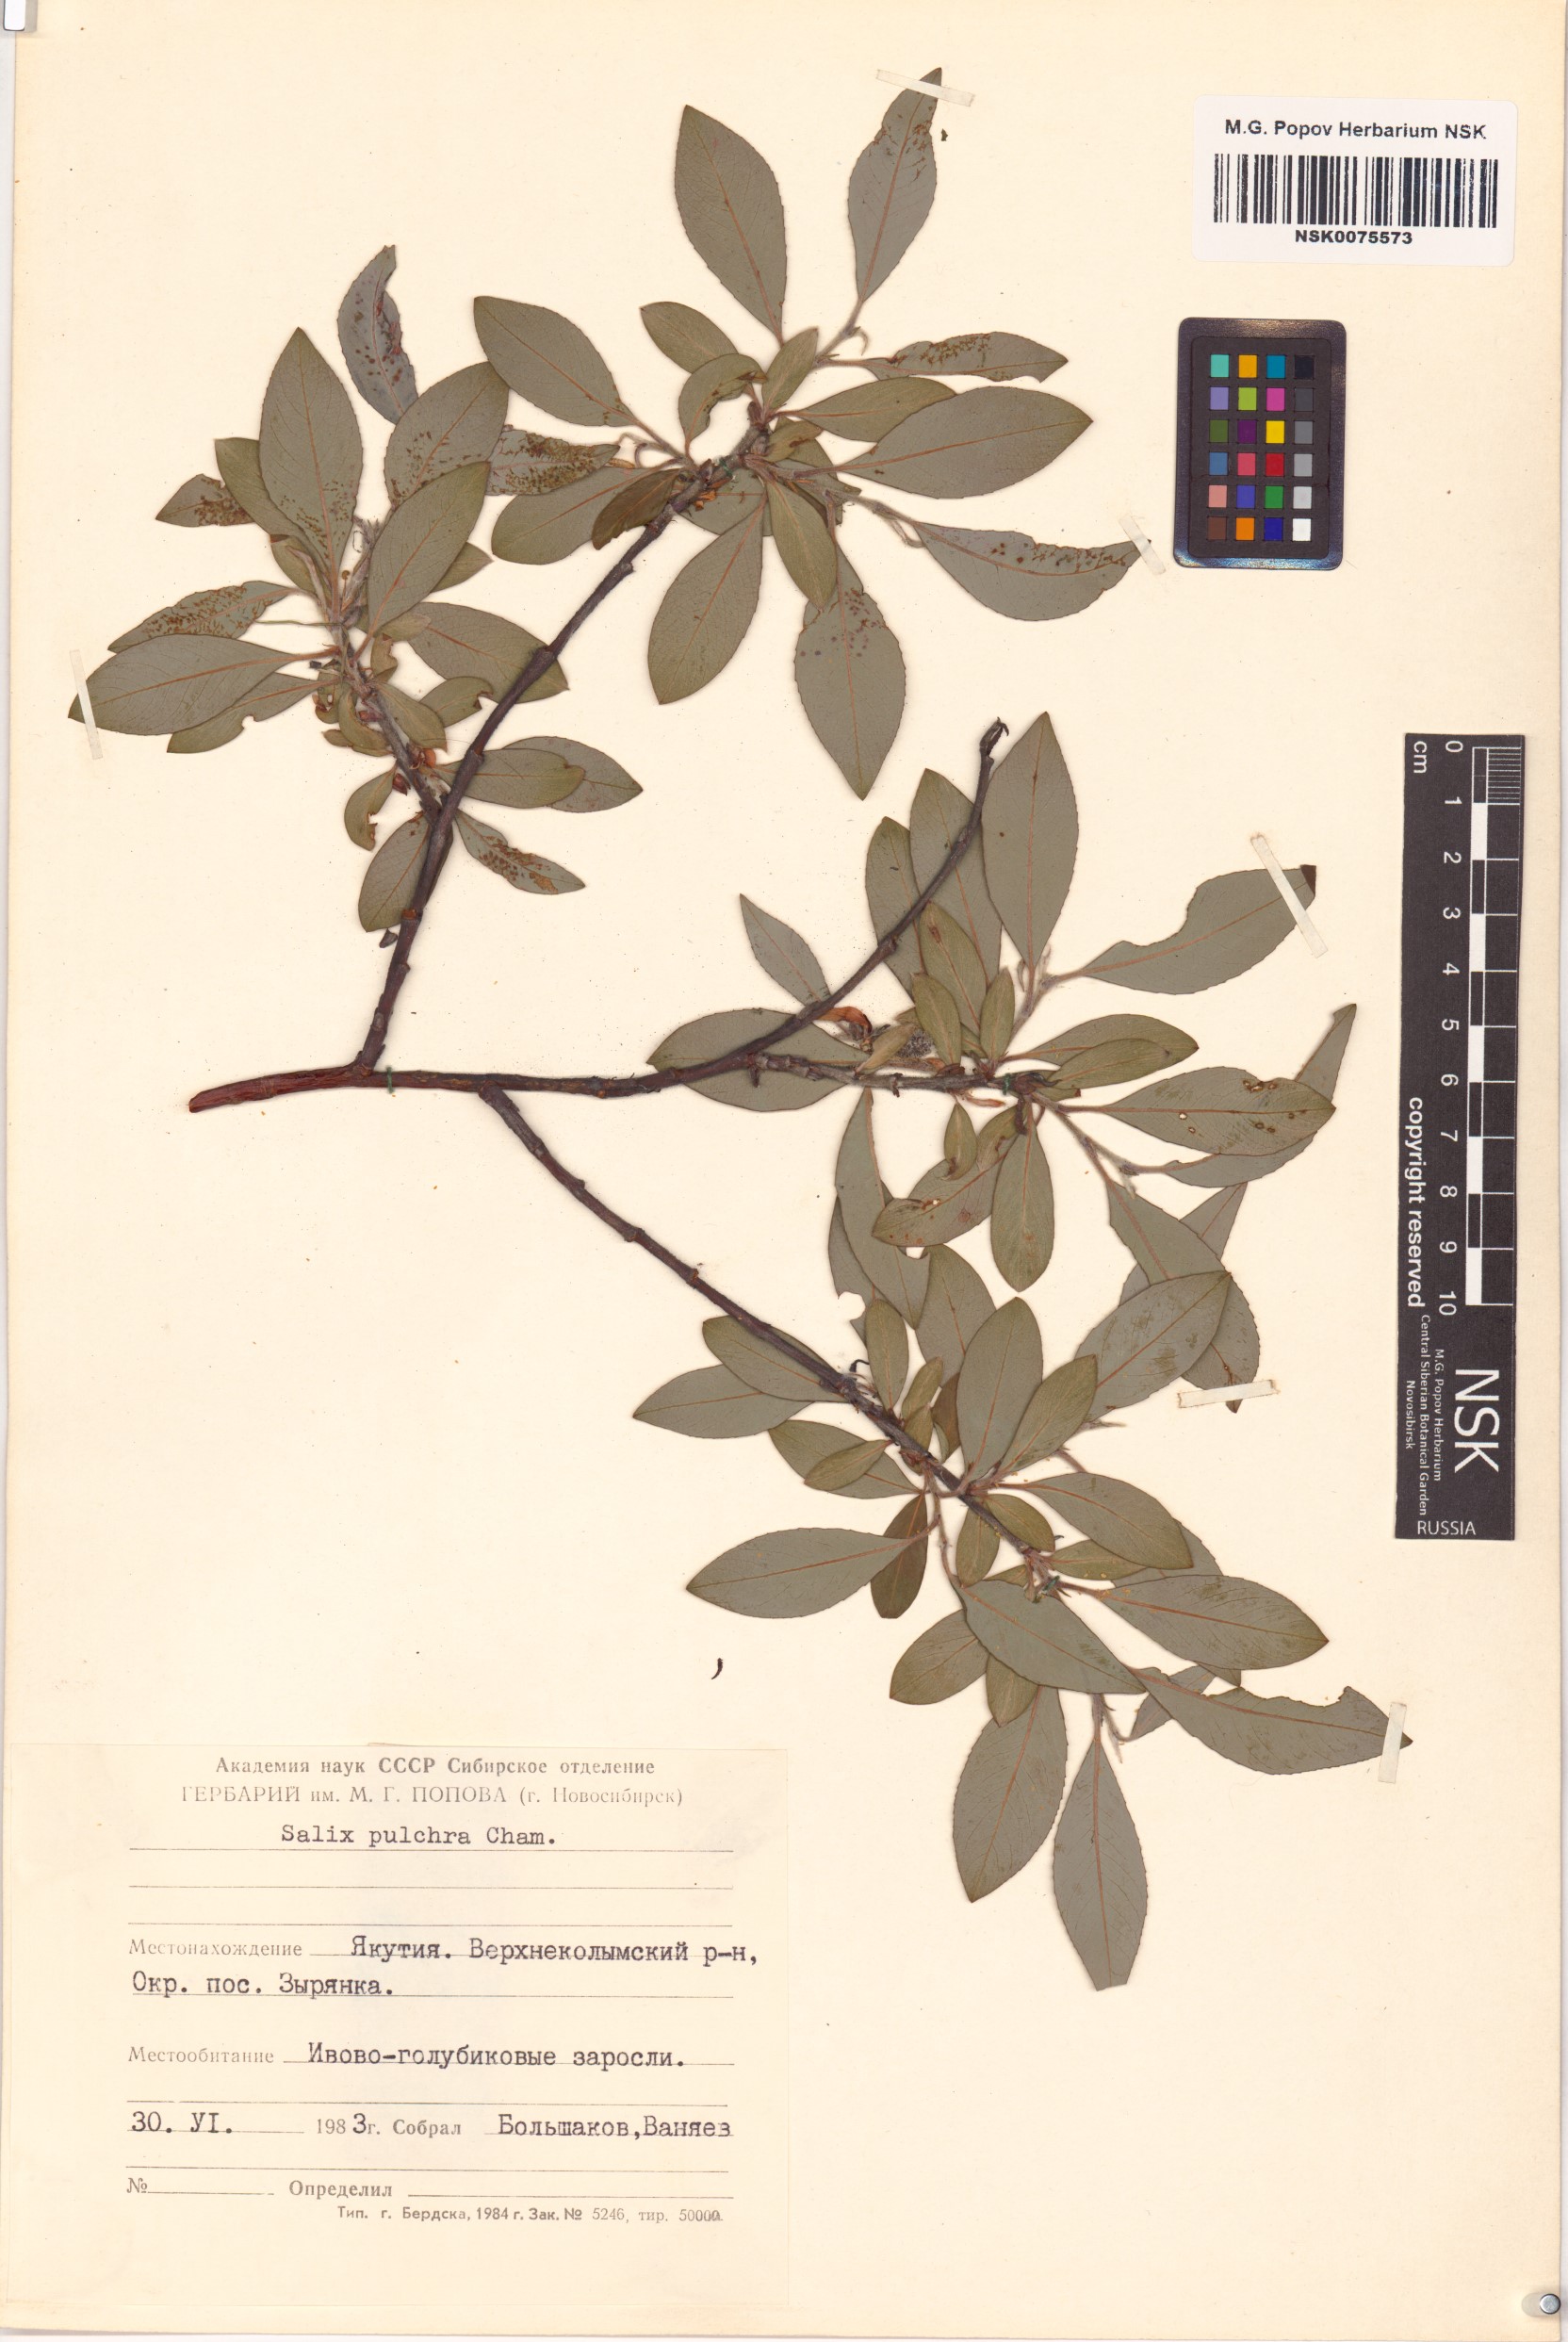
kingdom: Plantae
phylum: Tracheophyta
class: Magnoliopsida
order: Malpighiales
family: Salicaceae
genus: Salix
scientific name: Salix pulchra
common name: Diamond-leaved willow
